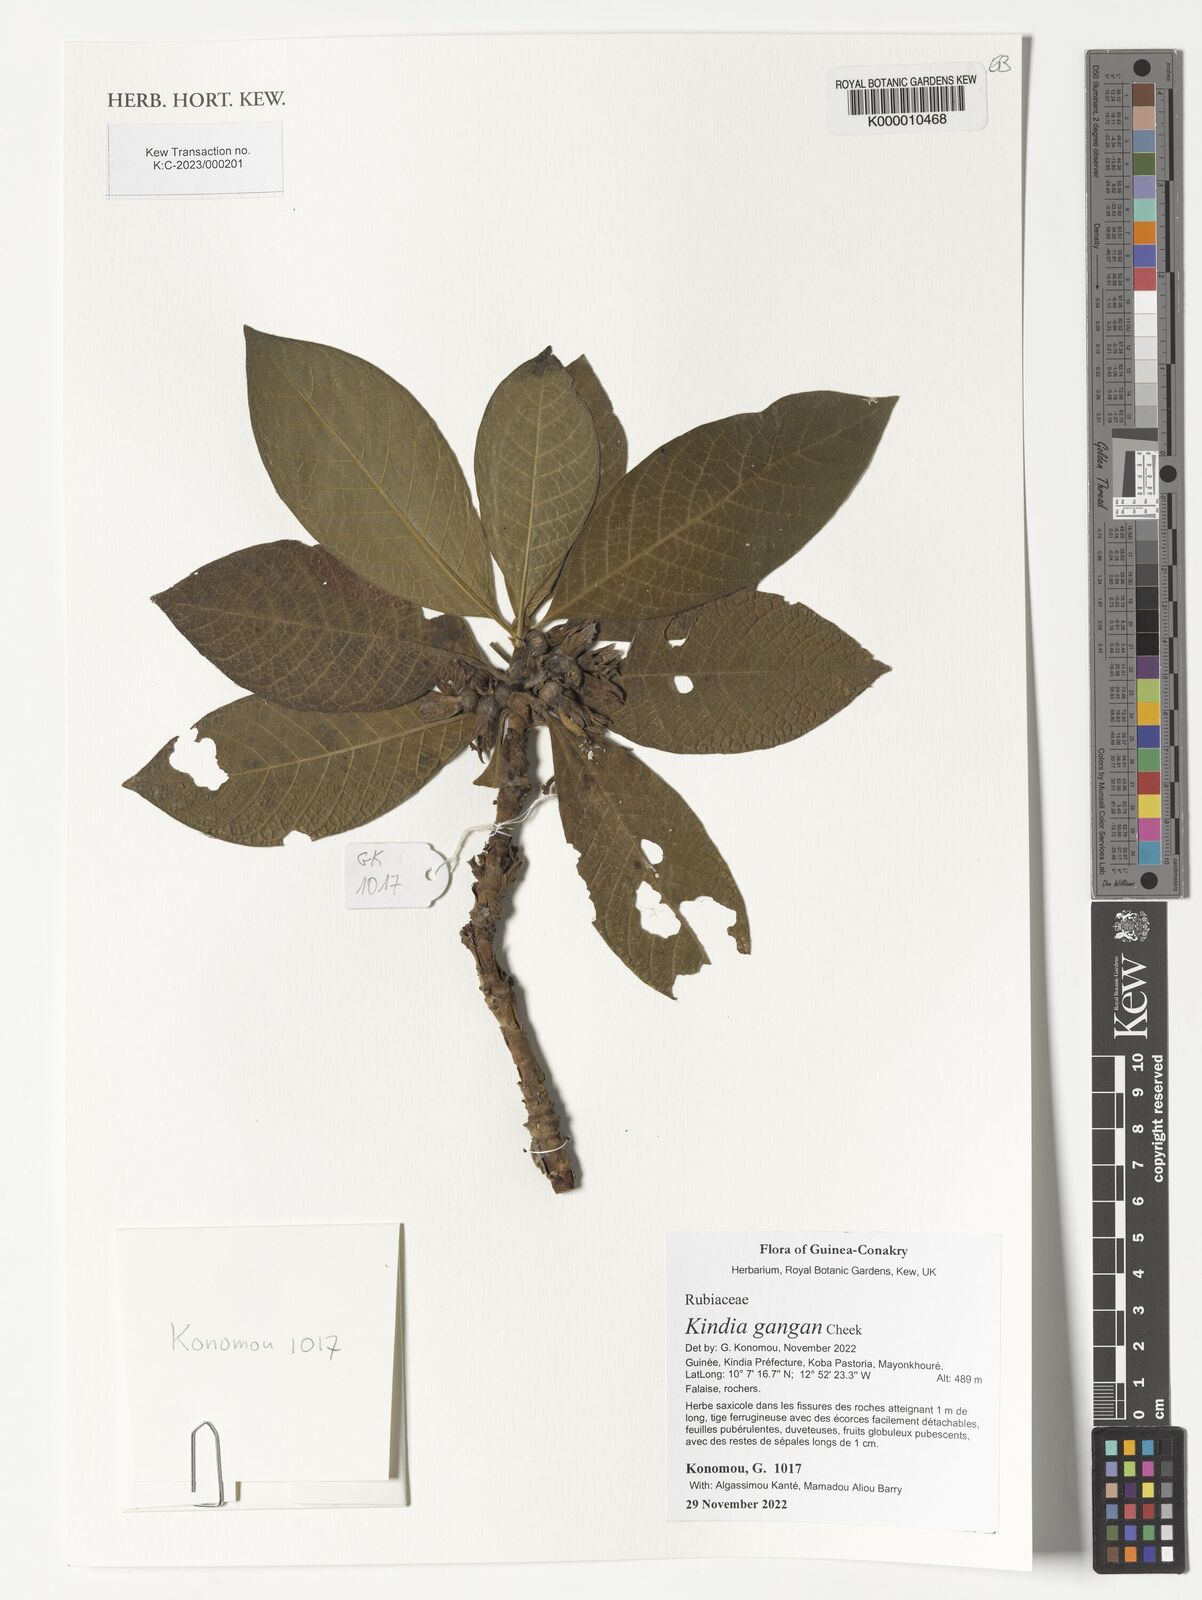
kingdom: Plantae
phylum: Tracheophyta
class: Magnoliopsida
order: Gentianales
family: Rubiaceae
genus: Kindia
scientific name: Kindia gangan
